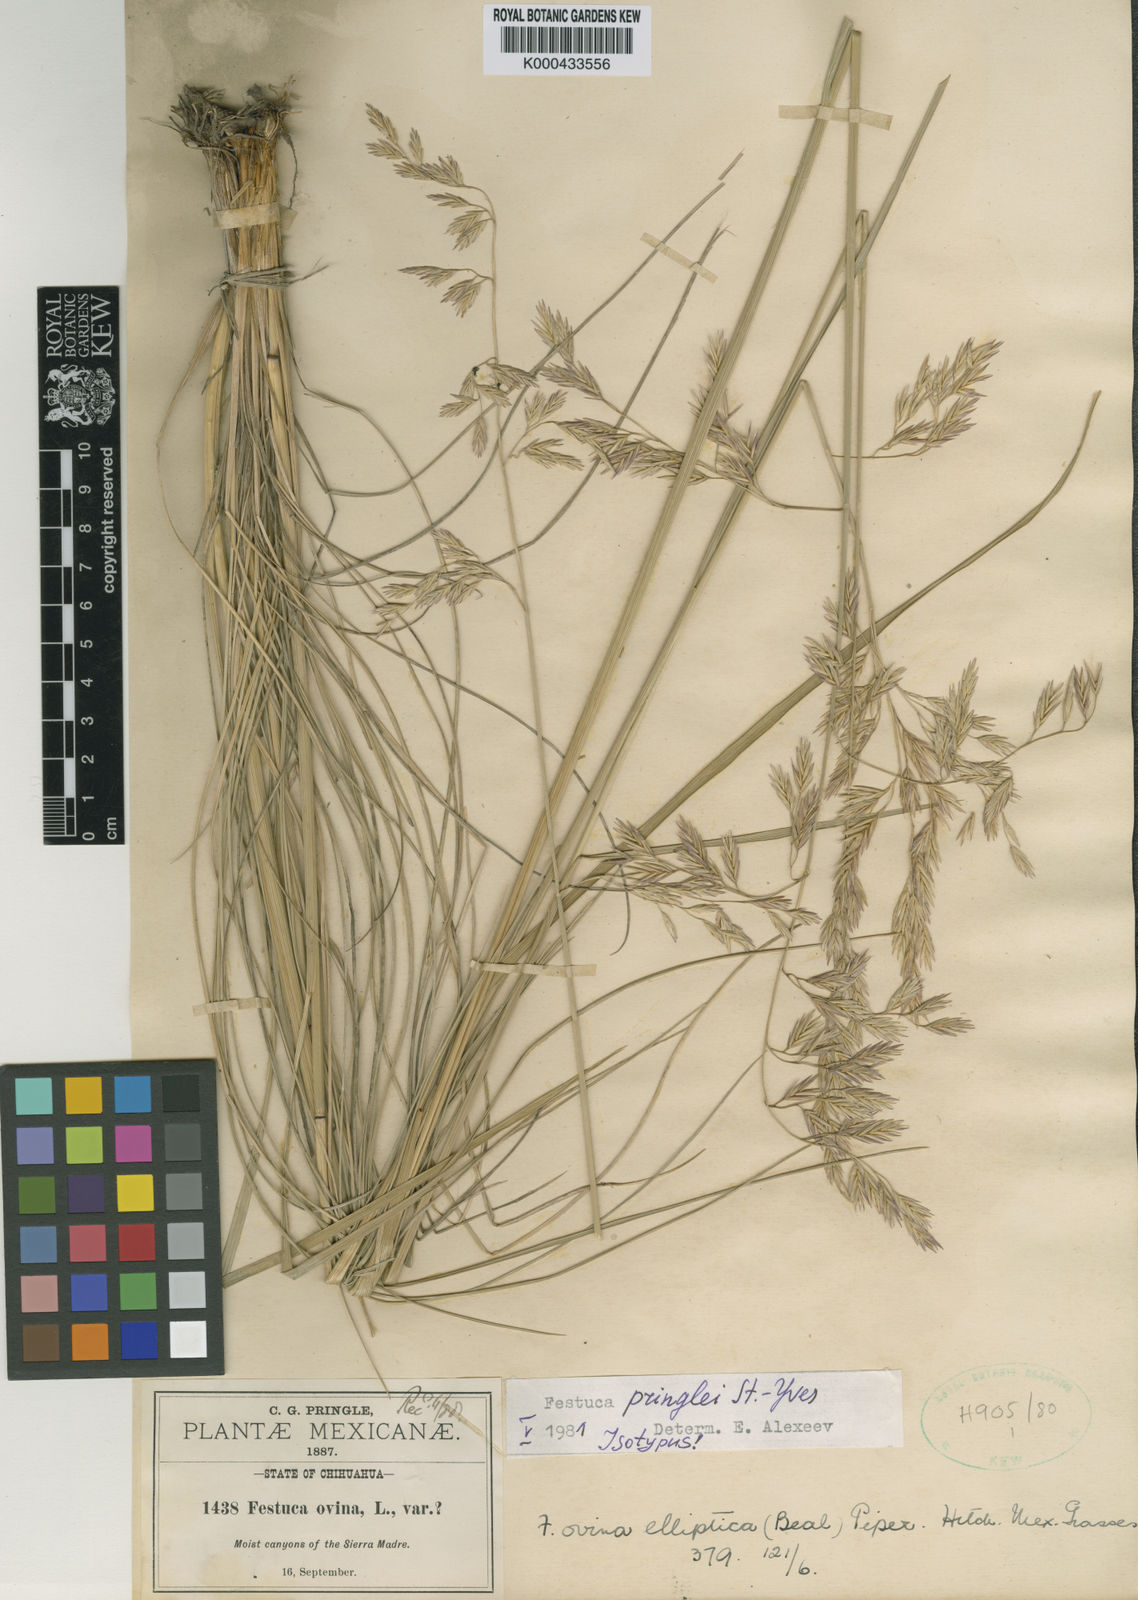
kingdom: Plantae
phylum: Tracheophyta
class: Liliopsida
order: Poales
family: Poaceae
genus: Festuca
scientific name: Festuca pringlei
